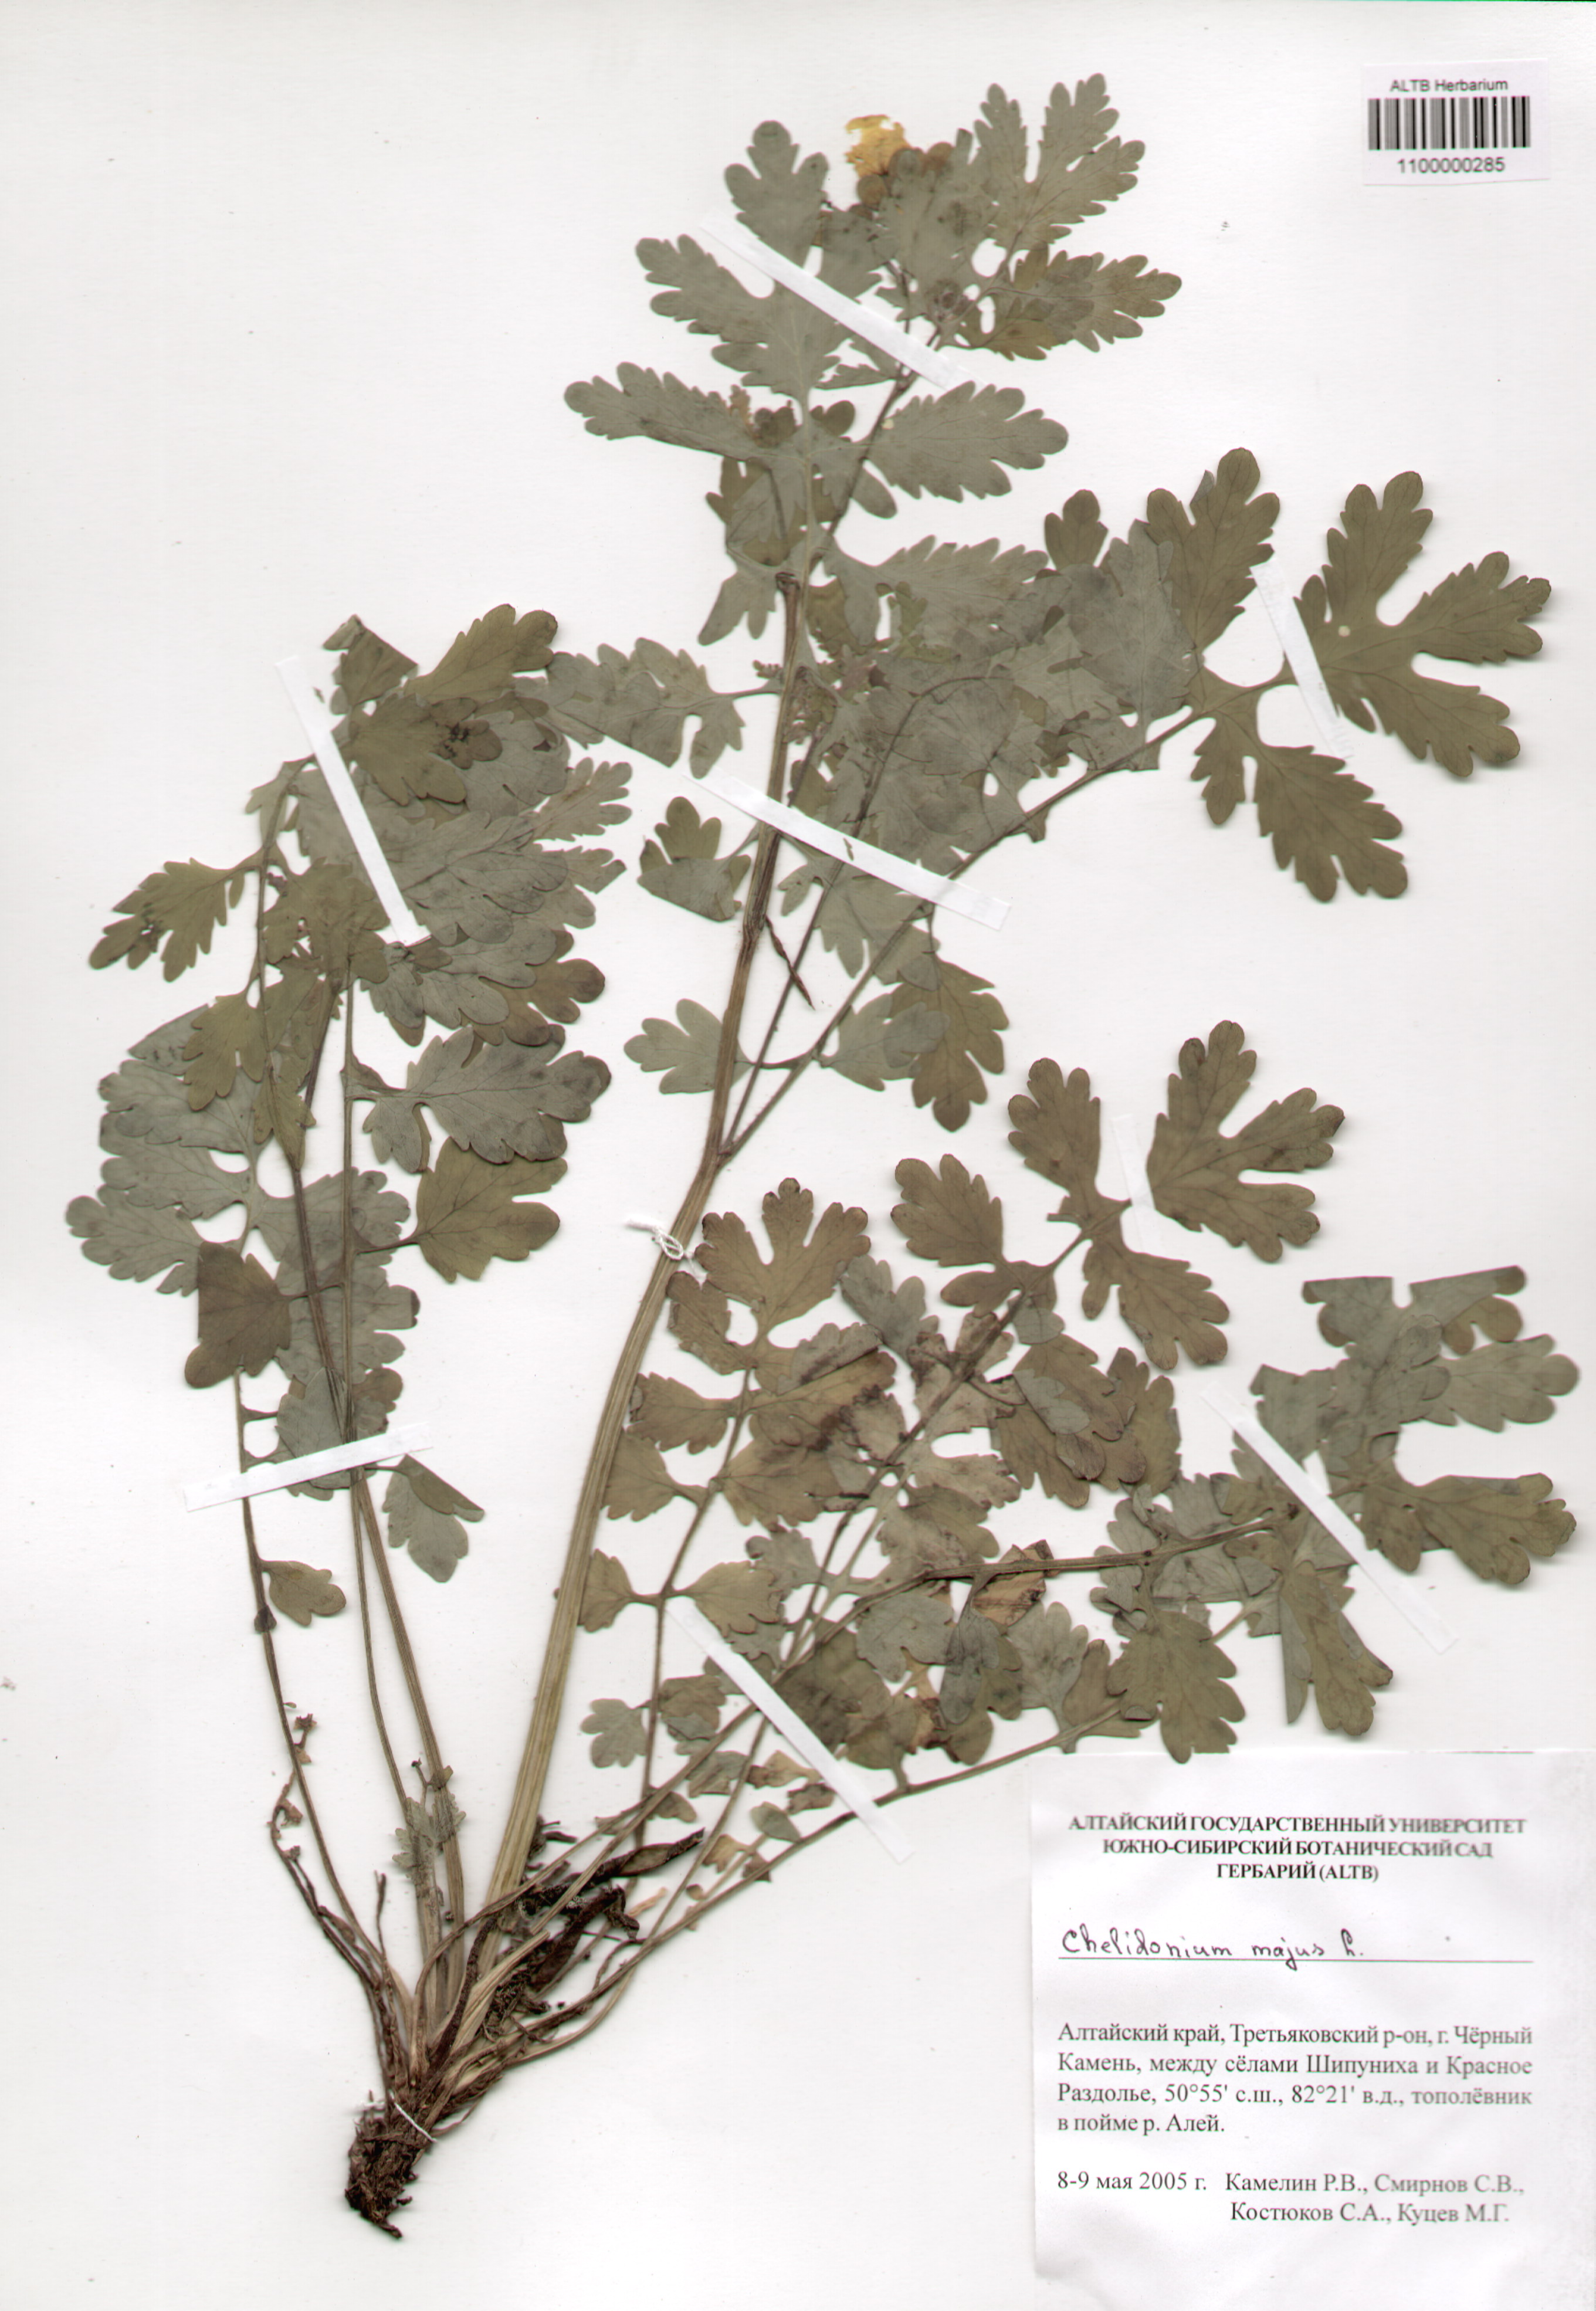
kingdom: Plantae
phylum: Tracheophyta
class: Magnoliopsida
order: Ranunculales
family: Papaveraceae
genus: Chelidonium
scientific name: Chelidonium majus
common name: Greater celandine
